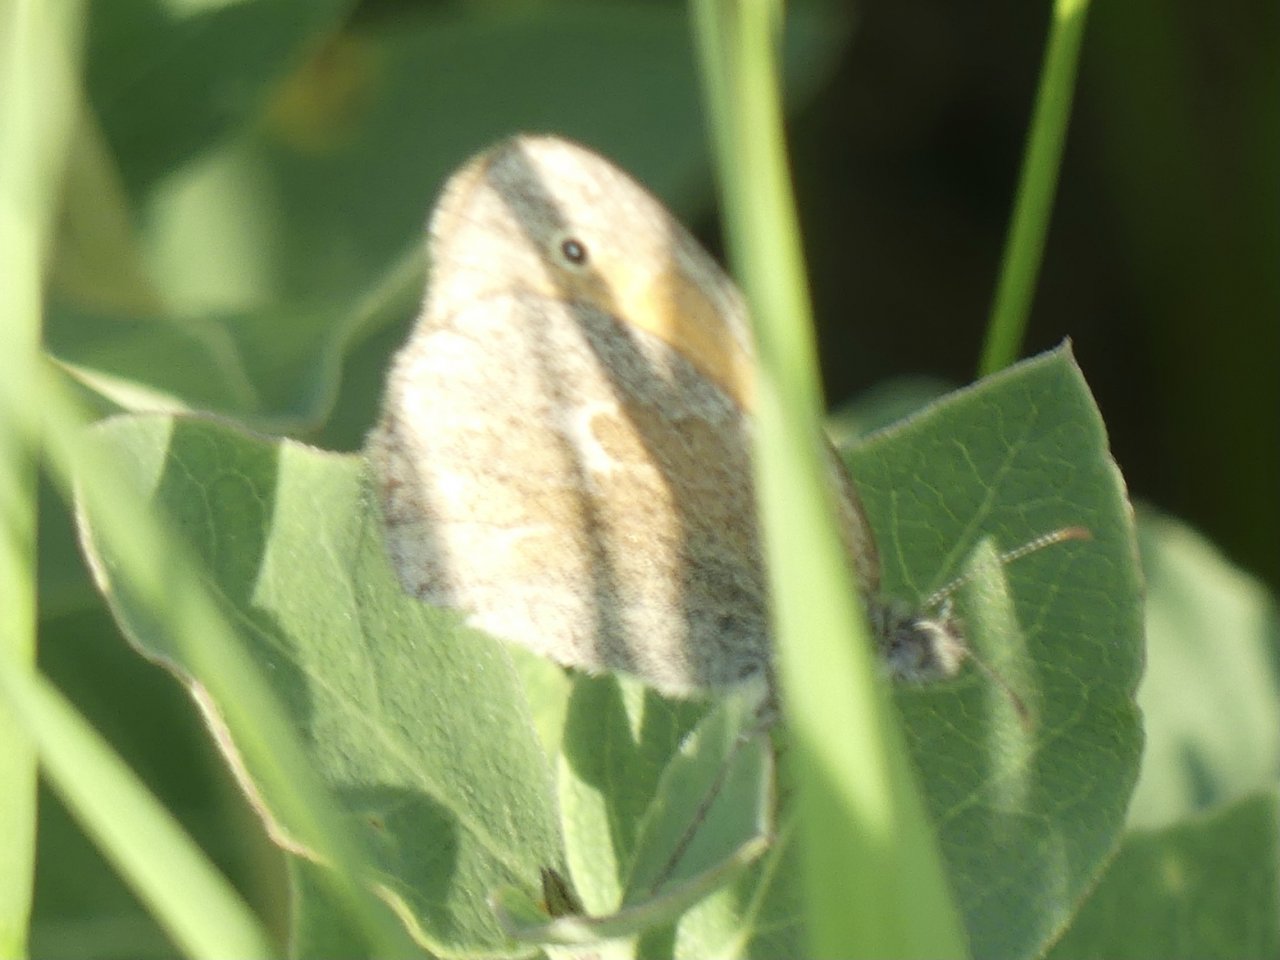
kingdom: Animalia
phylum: Arthropoda
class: Insecta
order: Lepidoptera
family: Nymphalidae
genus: Coenonympha
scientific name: Coenonympha tullia
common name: Large Heath
